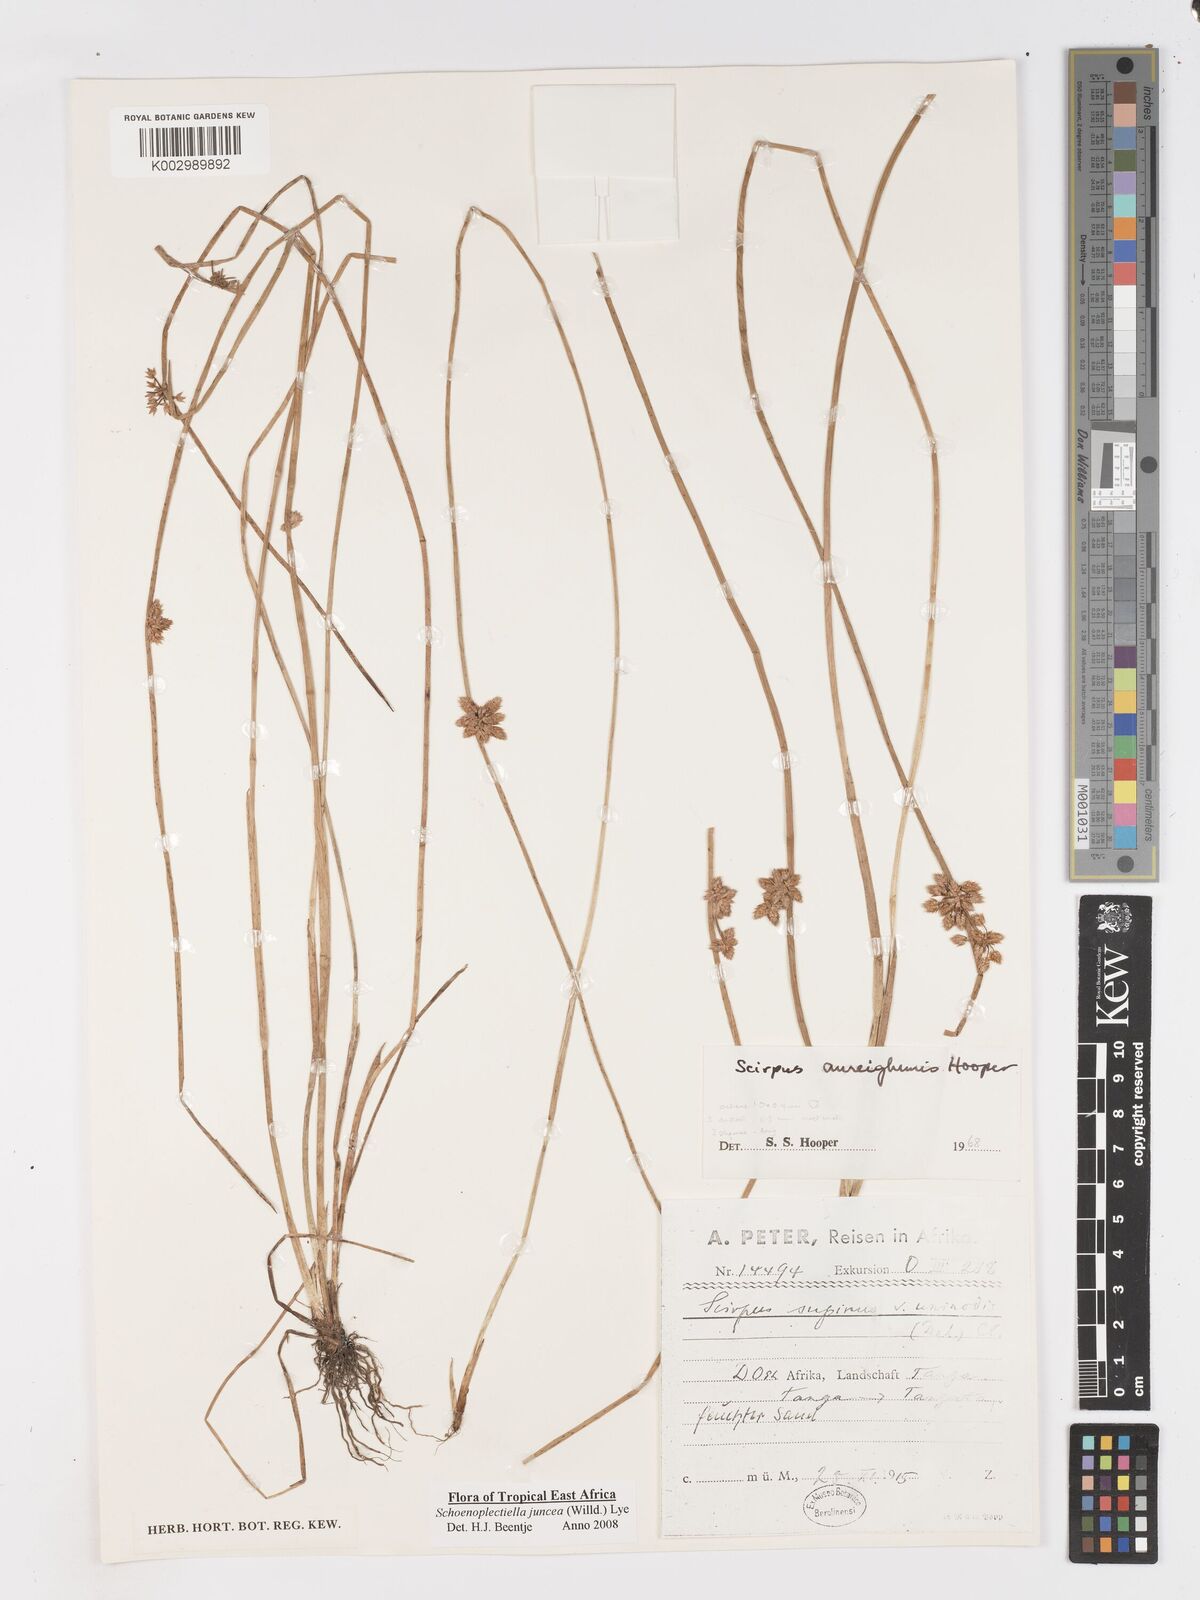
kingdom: Plantae
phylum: Tracheophyta
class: Liliopsida
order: Poales
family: Cyperaceae
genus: Schoenoplectiella
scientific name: Schoenoplectiella juncea
